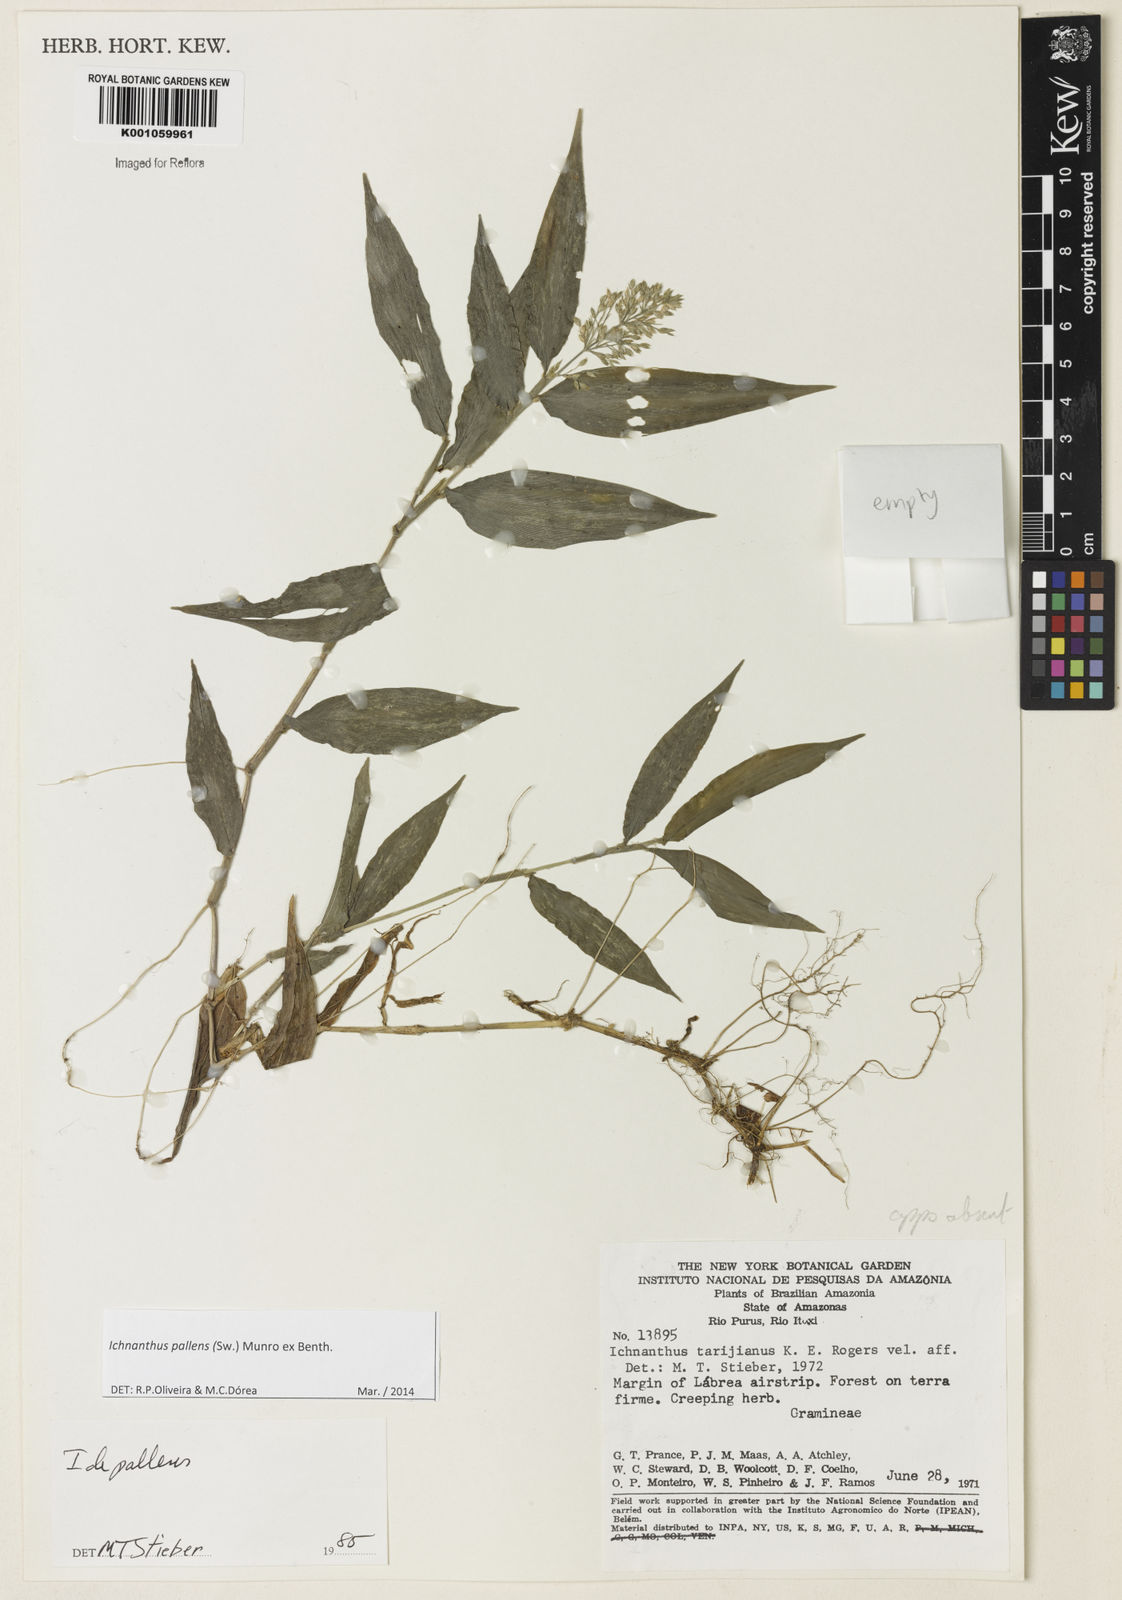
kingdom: Plantae
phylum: Tracheophyta
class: Liliopsida
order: Poales
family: Poaceae
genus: Ichnanthus
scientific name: Ichnanthus pallens
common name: Water grass
